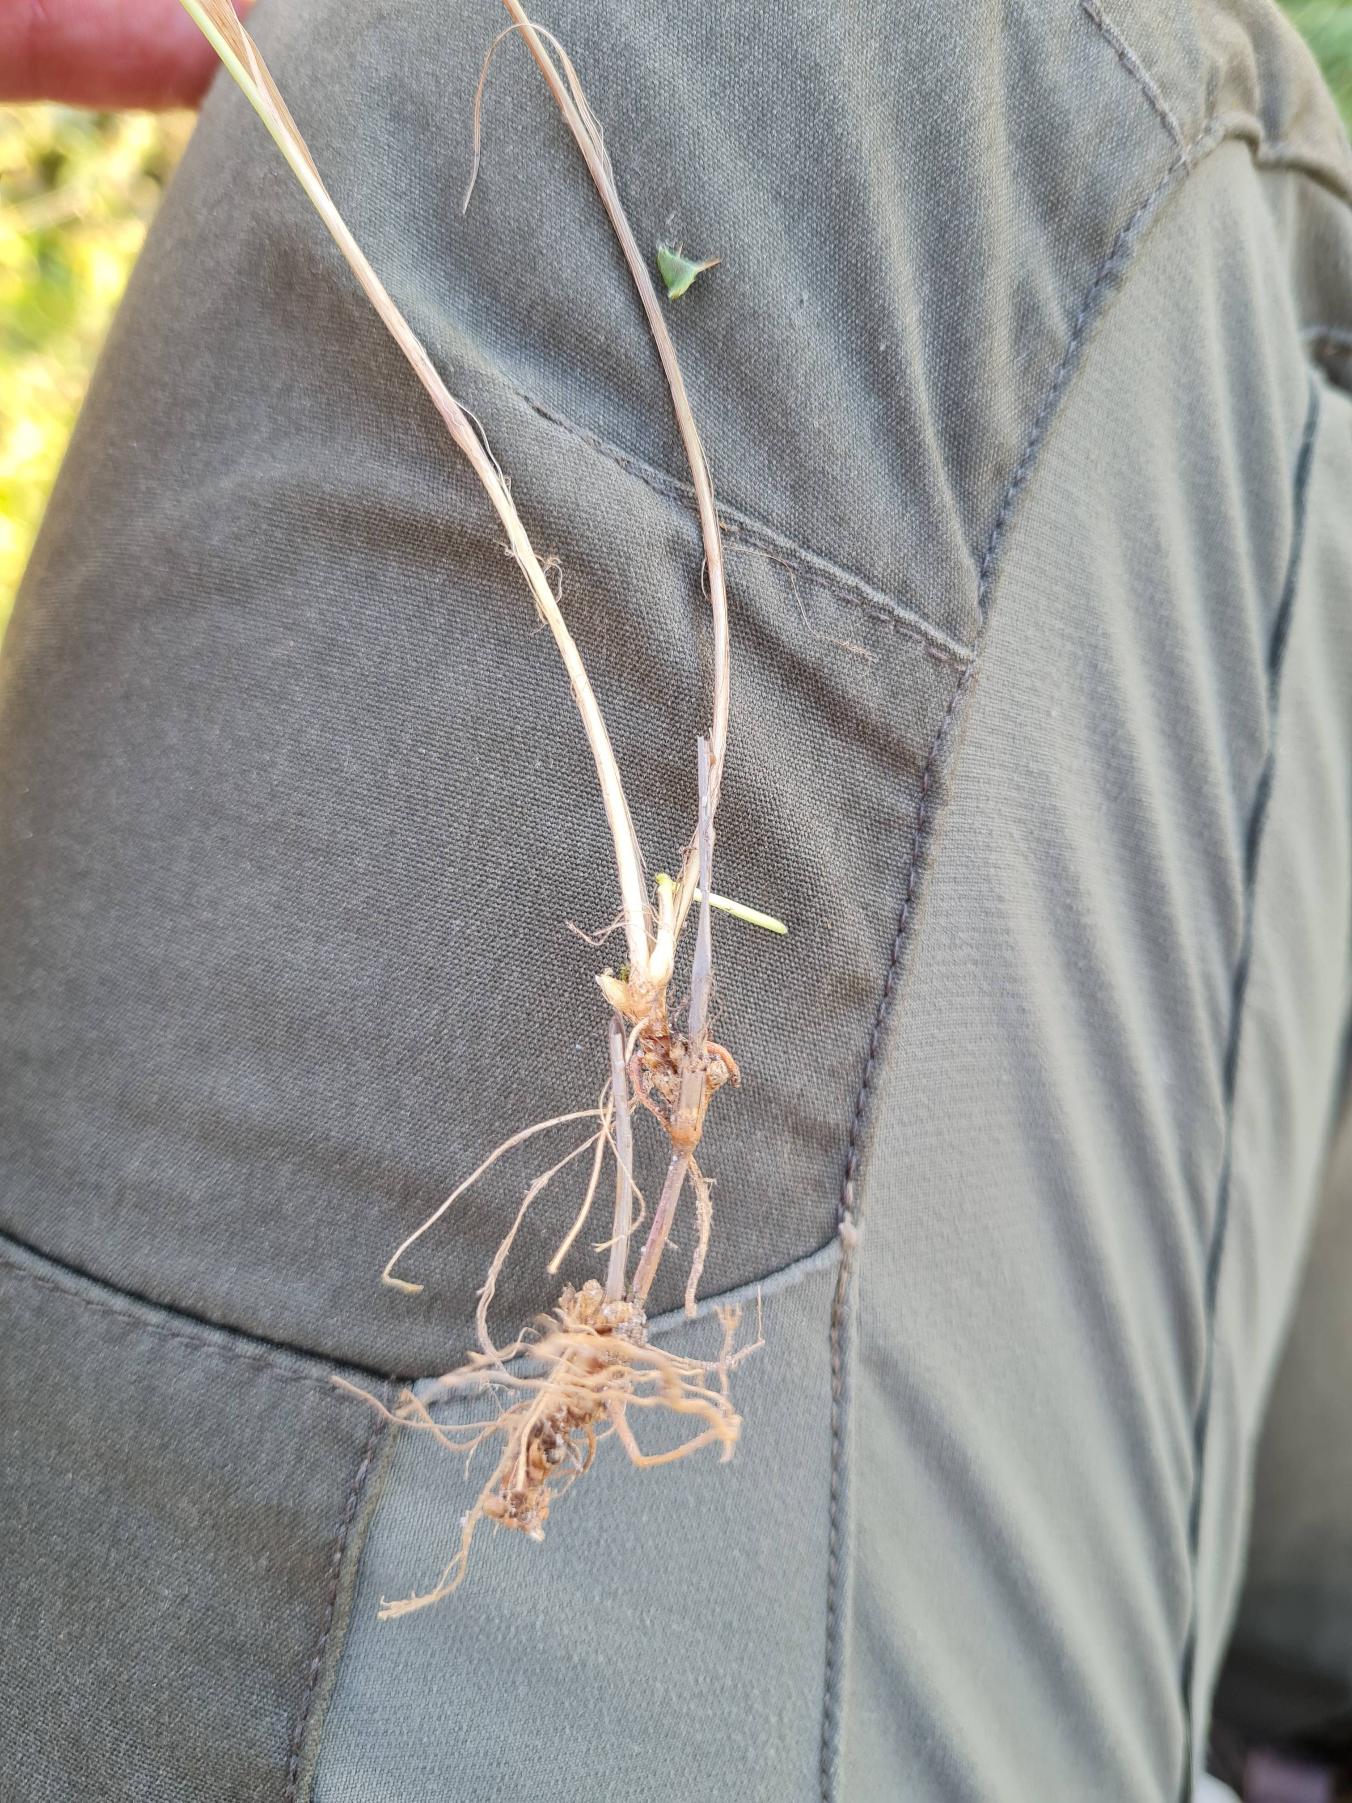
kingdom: Plantae
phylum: Tracheophyta
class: Liliopsida
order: Poales
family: Poaceae
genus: Holcus
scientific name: Holcus mollis
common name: Krybende hestegræs
